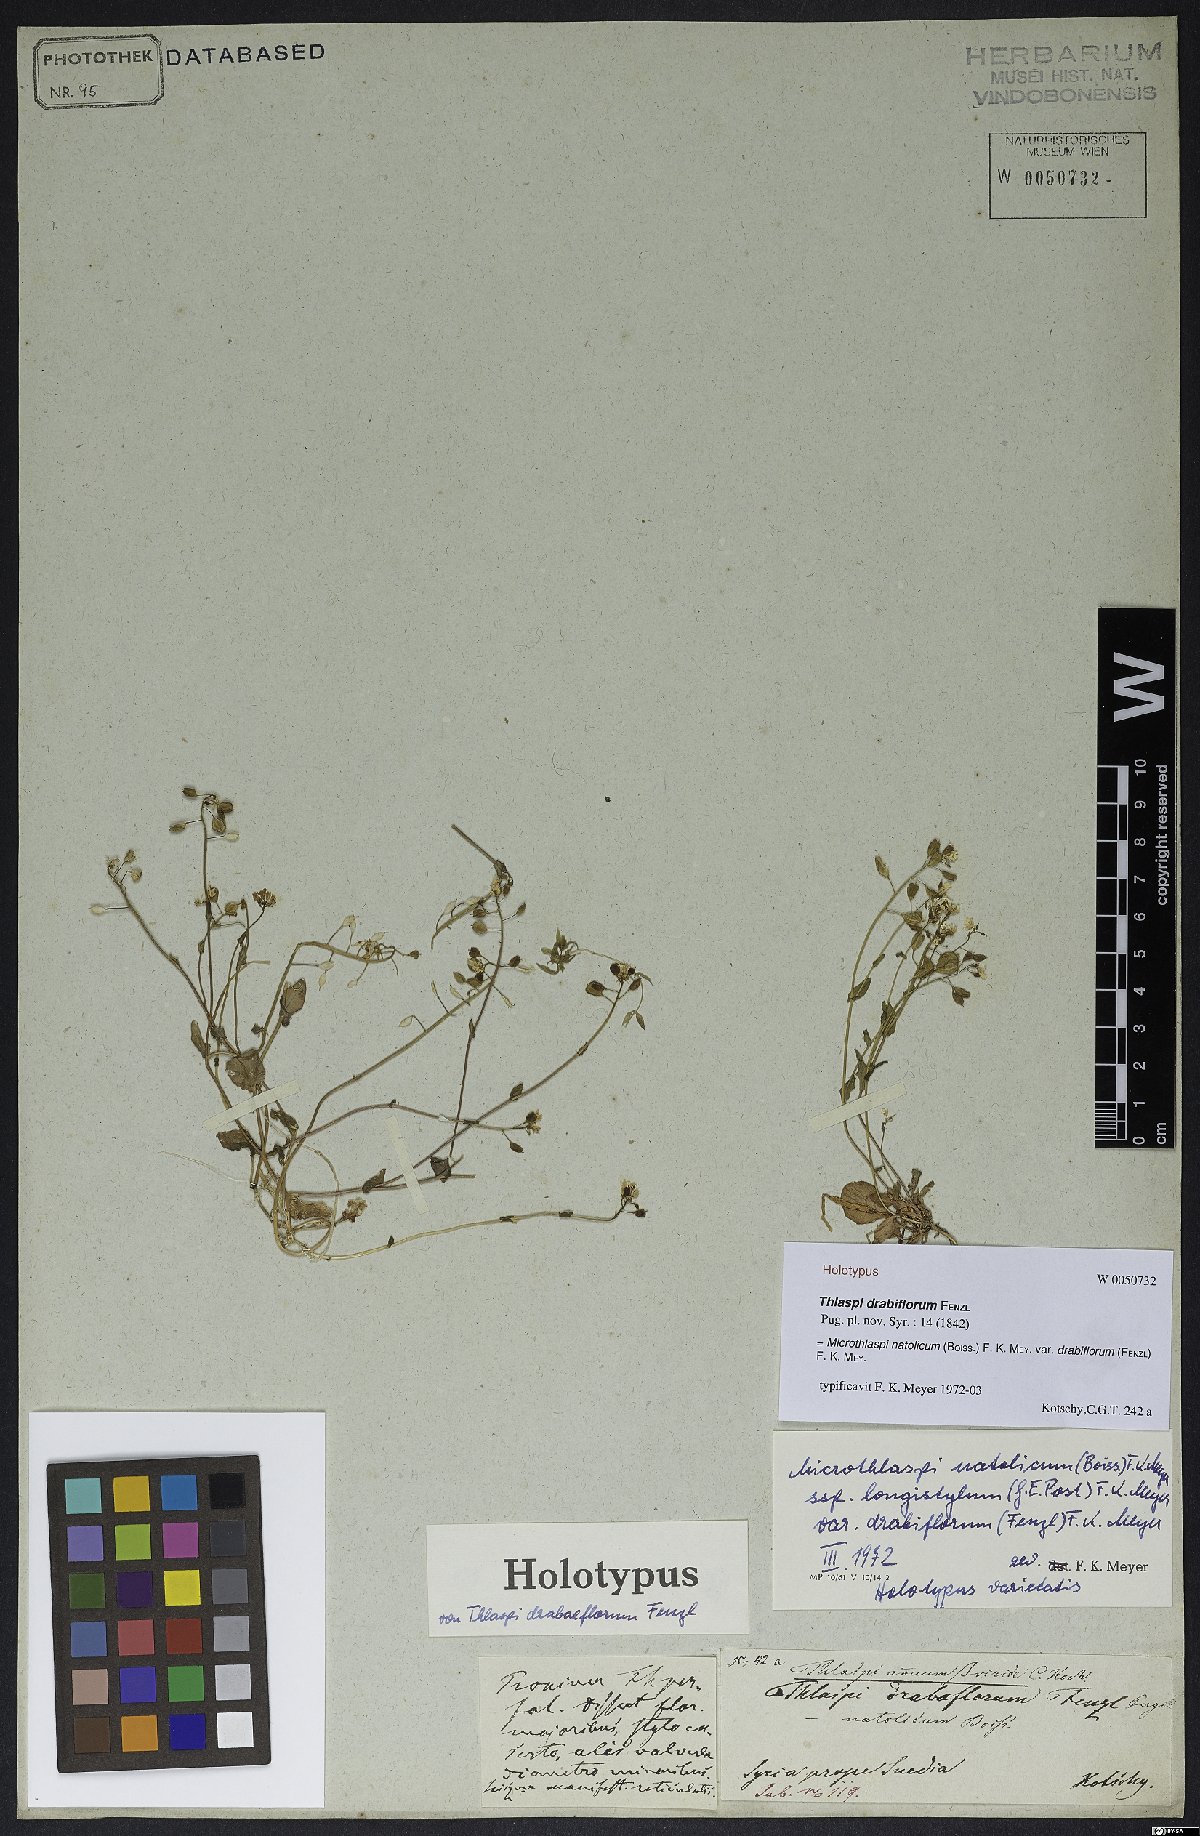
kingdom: Plantae
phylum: Tracheophyta
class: Magnoliopsida
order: Brassicales
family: Brassicaceae
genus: Noccaea
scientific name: Noccaea natolica
